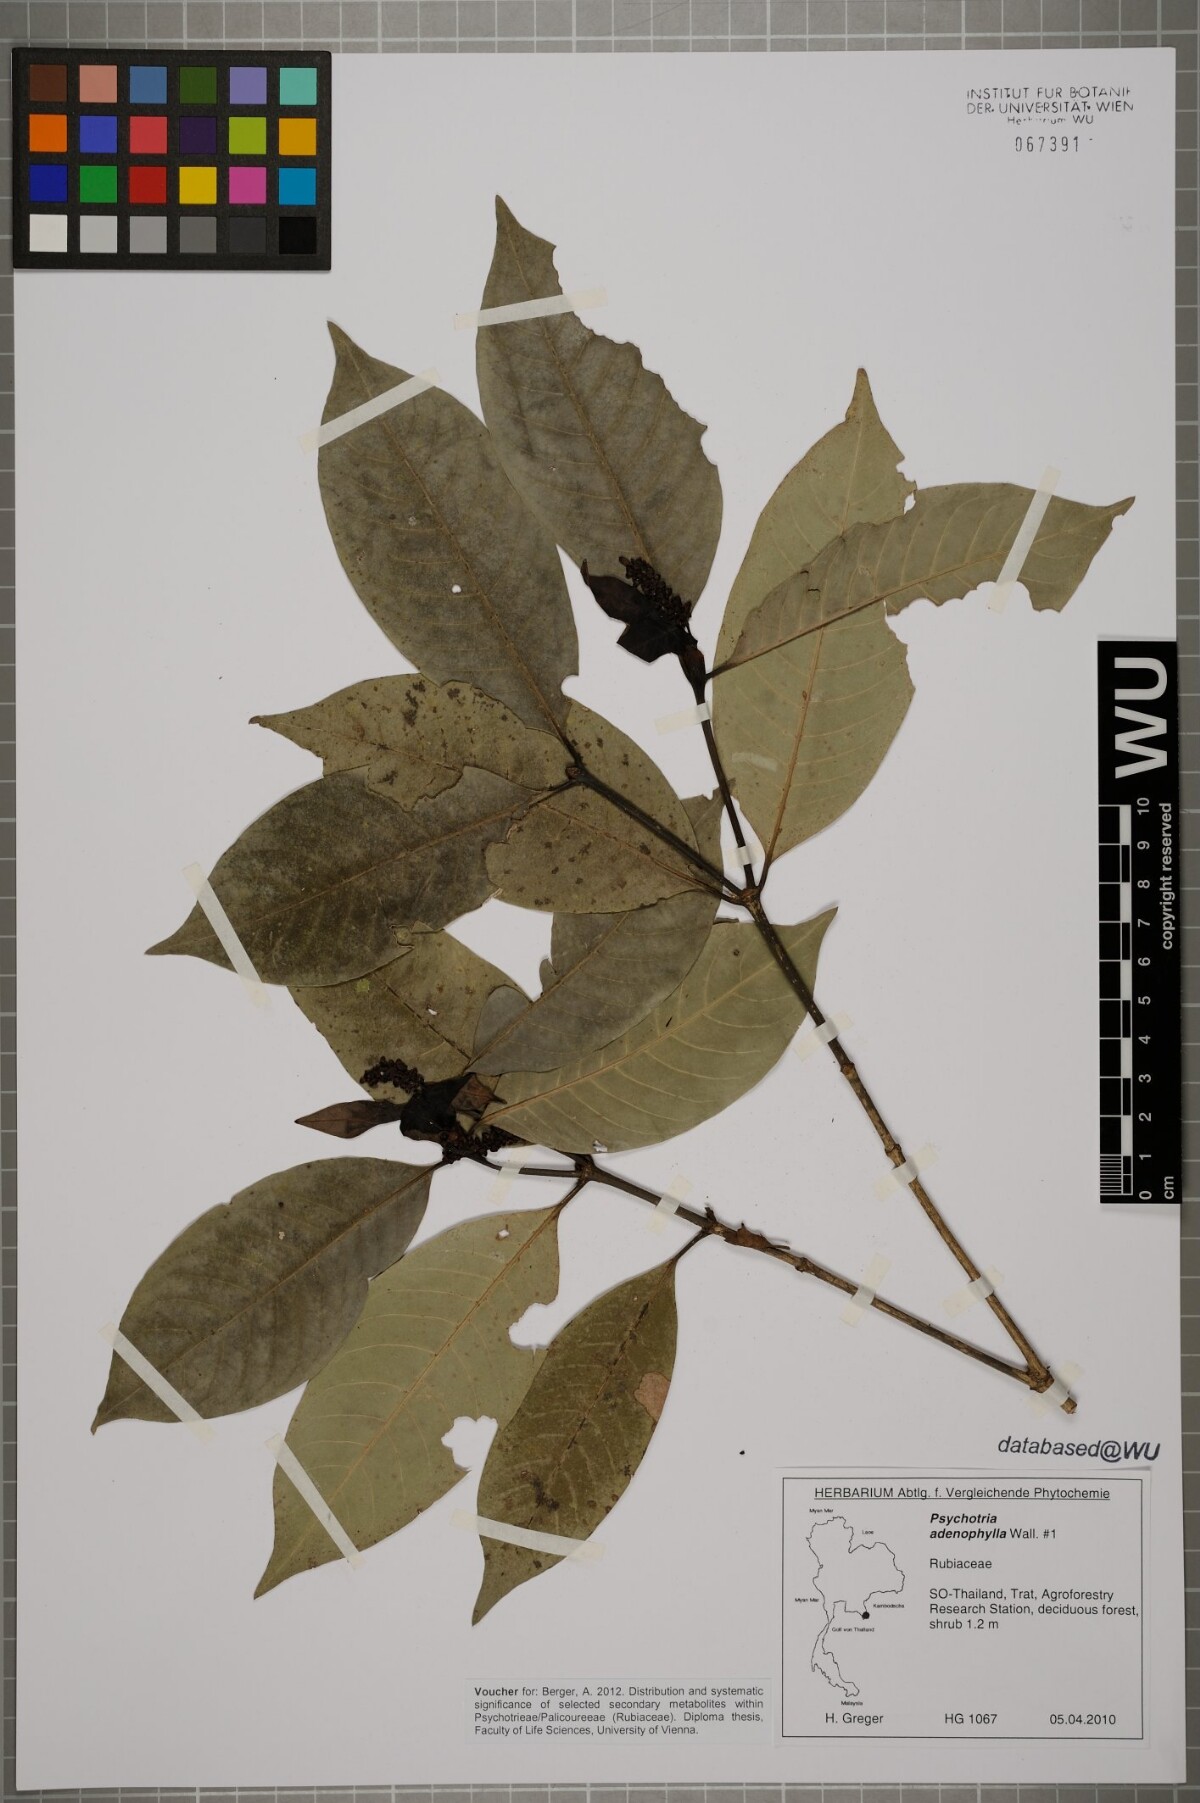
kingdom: Plantae
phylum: Tracheophyta
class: Magnoliopsida
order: Gentianales
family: Rubiaceae
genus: Psychotria
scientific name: Psychotria adenophylla
